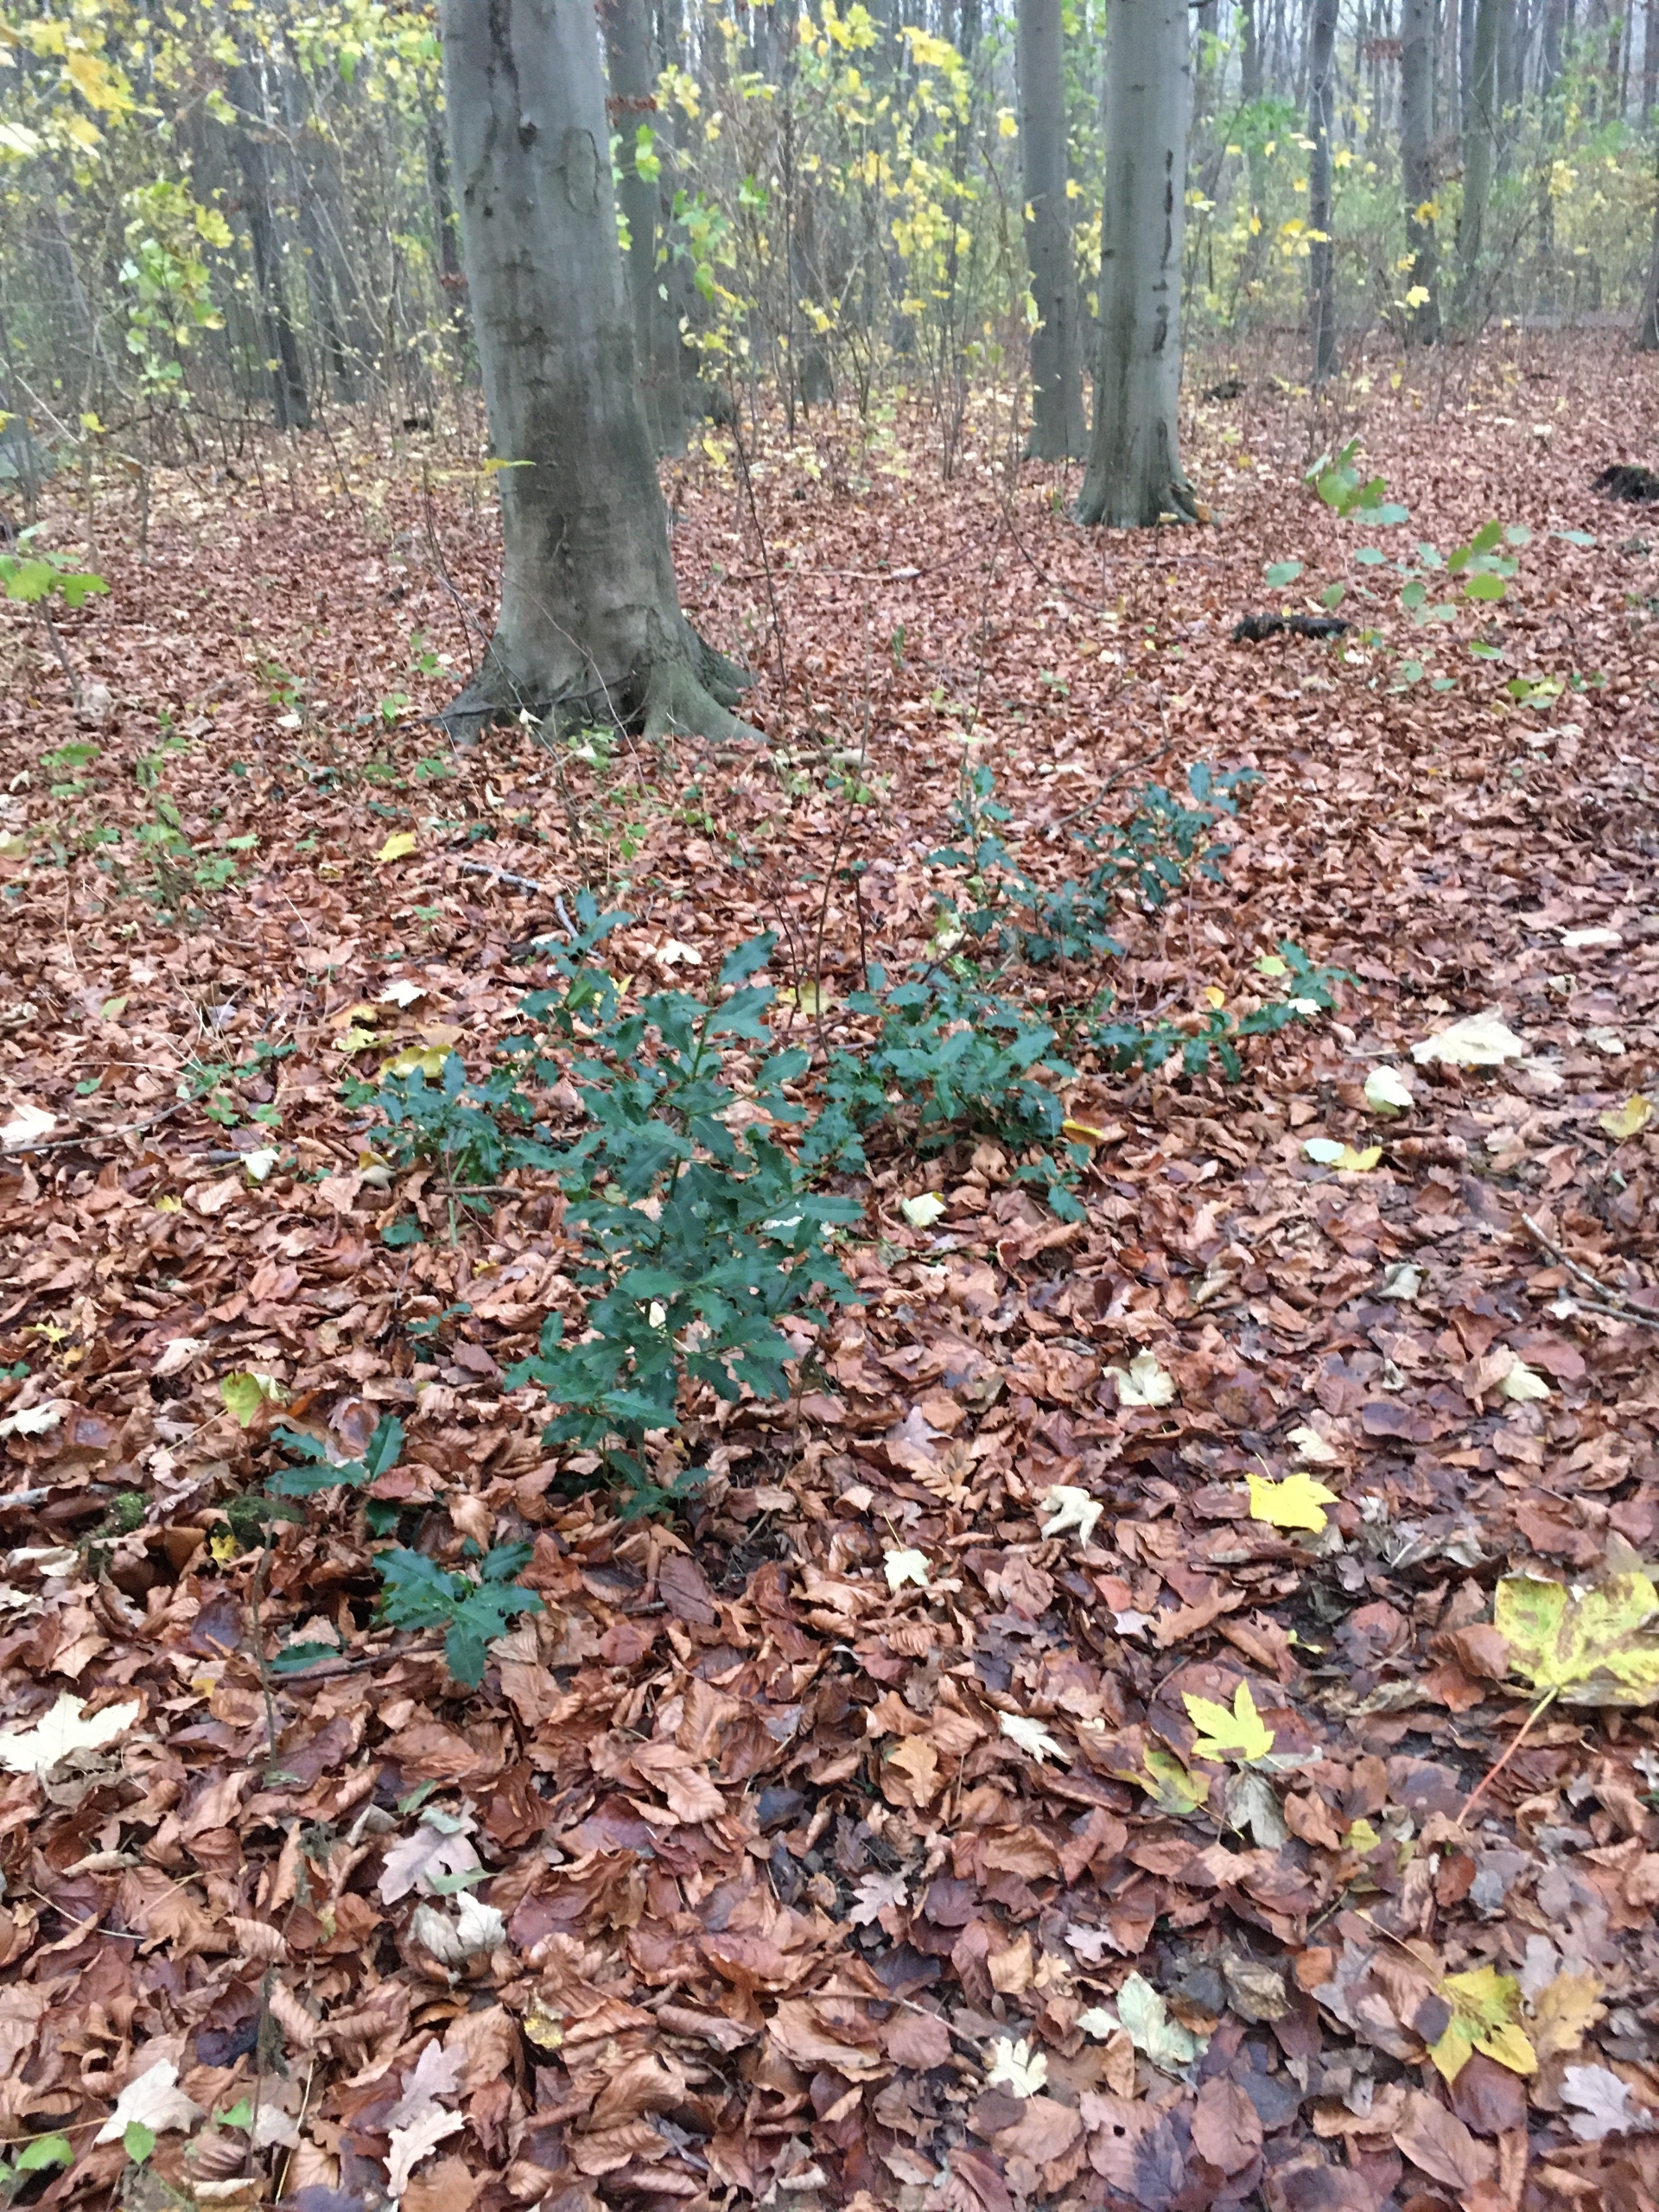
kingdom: Plantae
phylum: Tracheophyta
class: Magnoliopsida
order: Aquifoliales
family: Aquifoliaceae
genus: Ilex
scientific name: Ilex aquifolium
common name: Kristtorn
